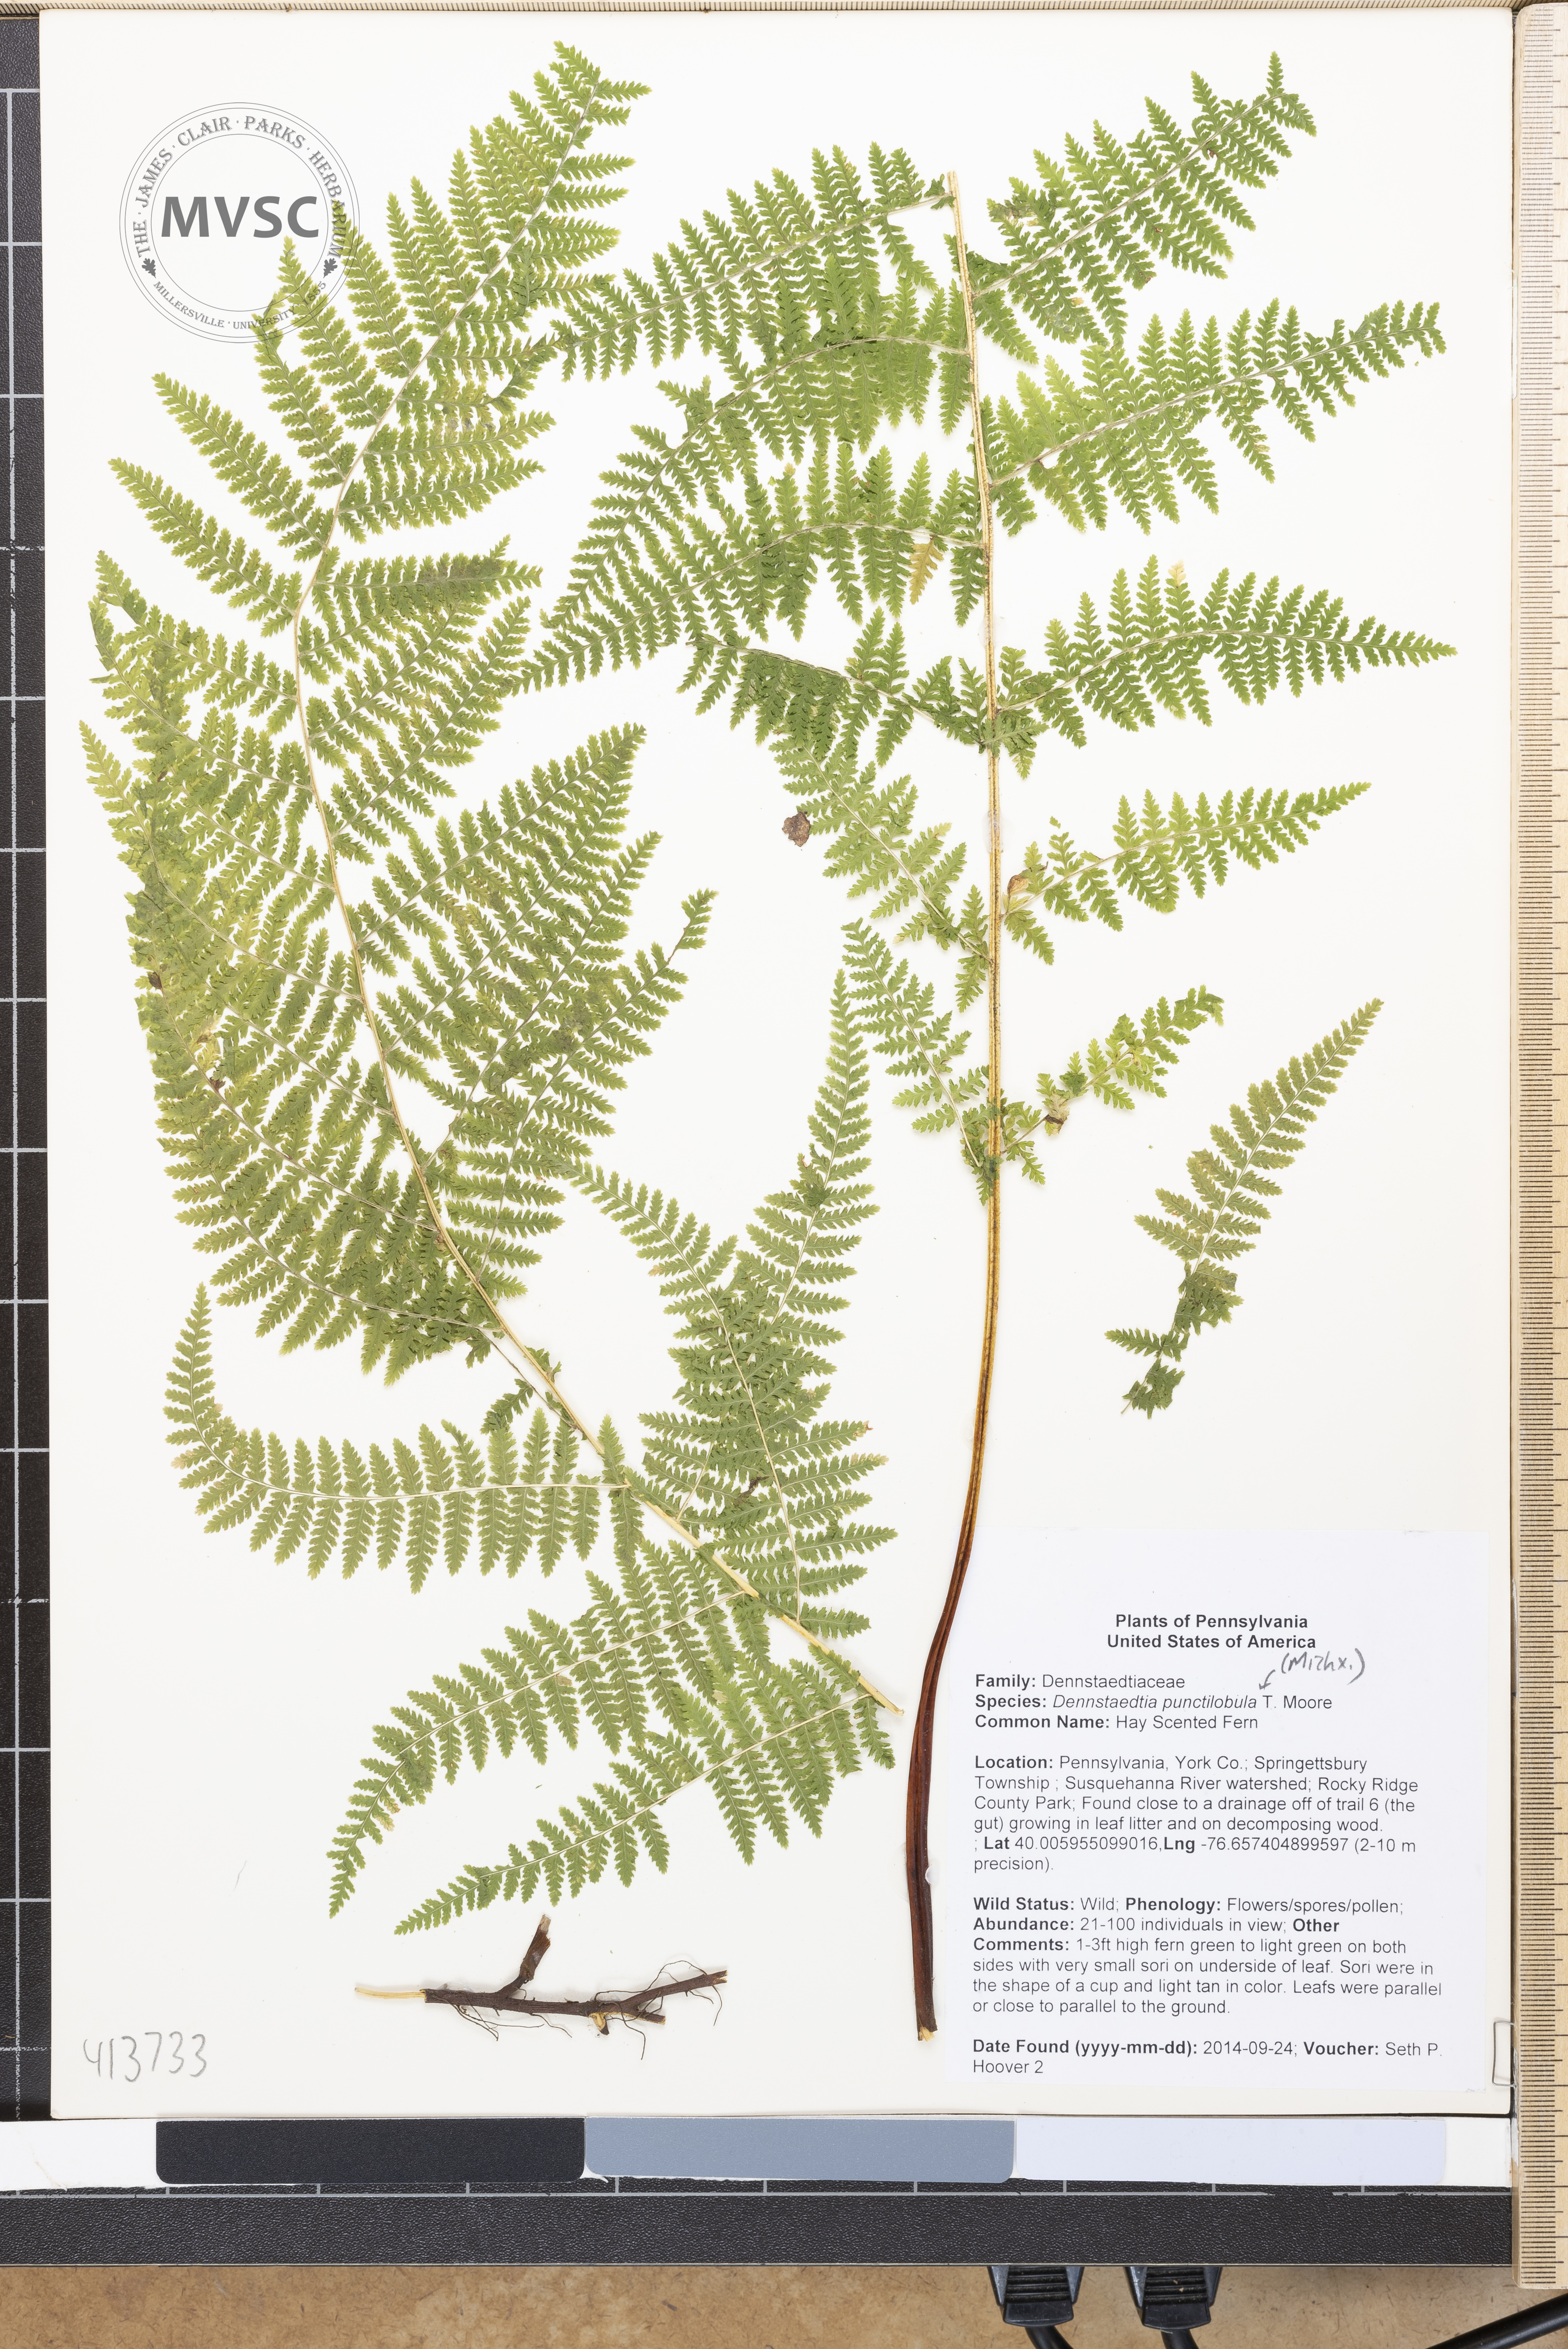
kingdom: Plantae
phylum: Tracheophyta
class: Polypodiopsida
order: Polypodiales
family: Dennstaedtiaceae
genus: Sitobolium
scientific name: Sitobolium punctilobum
